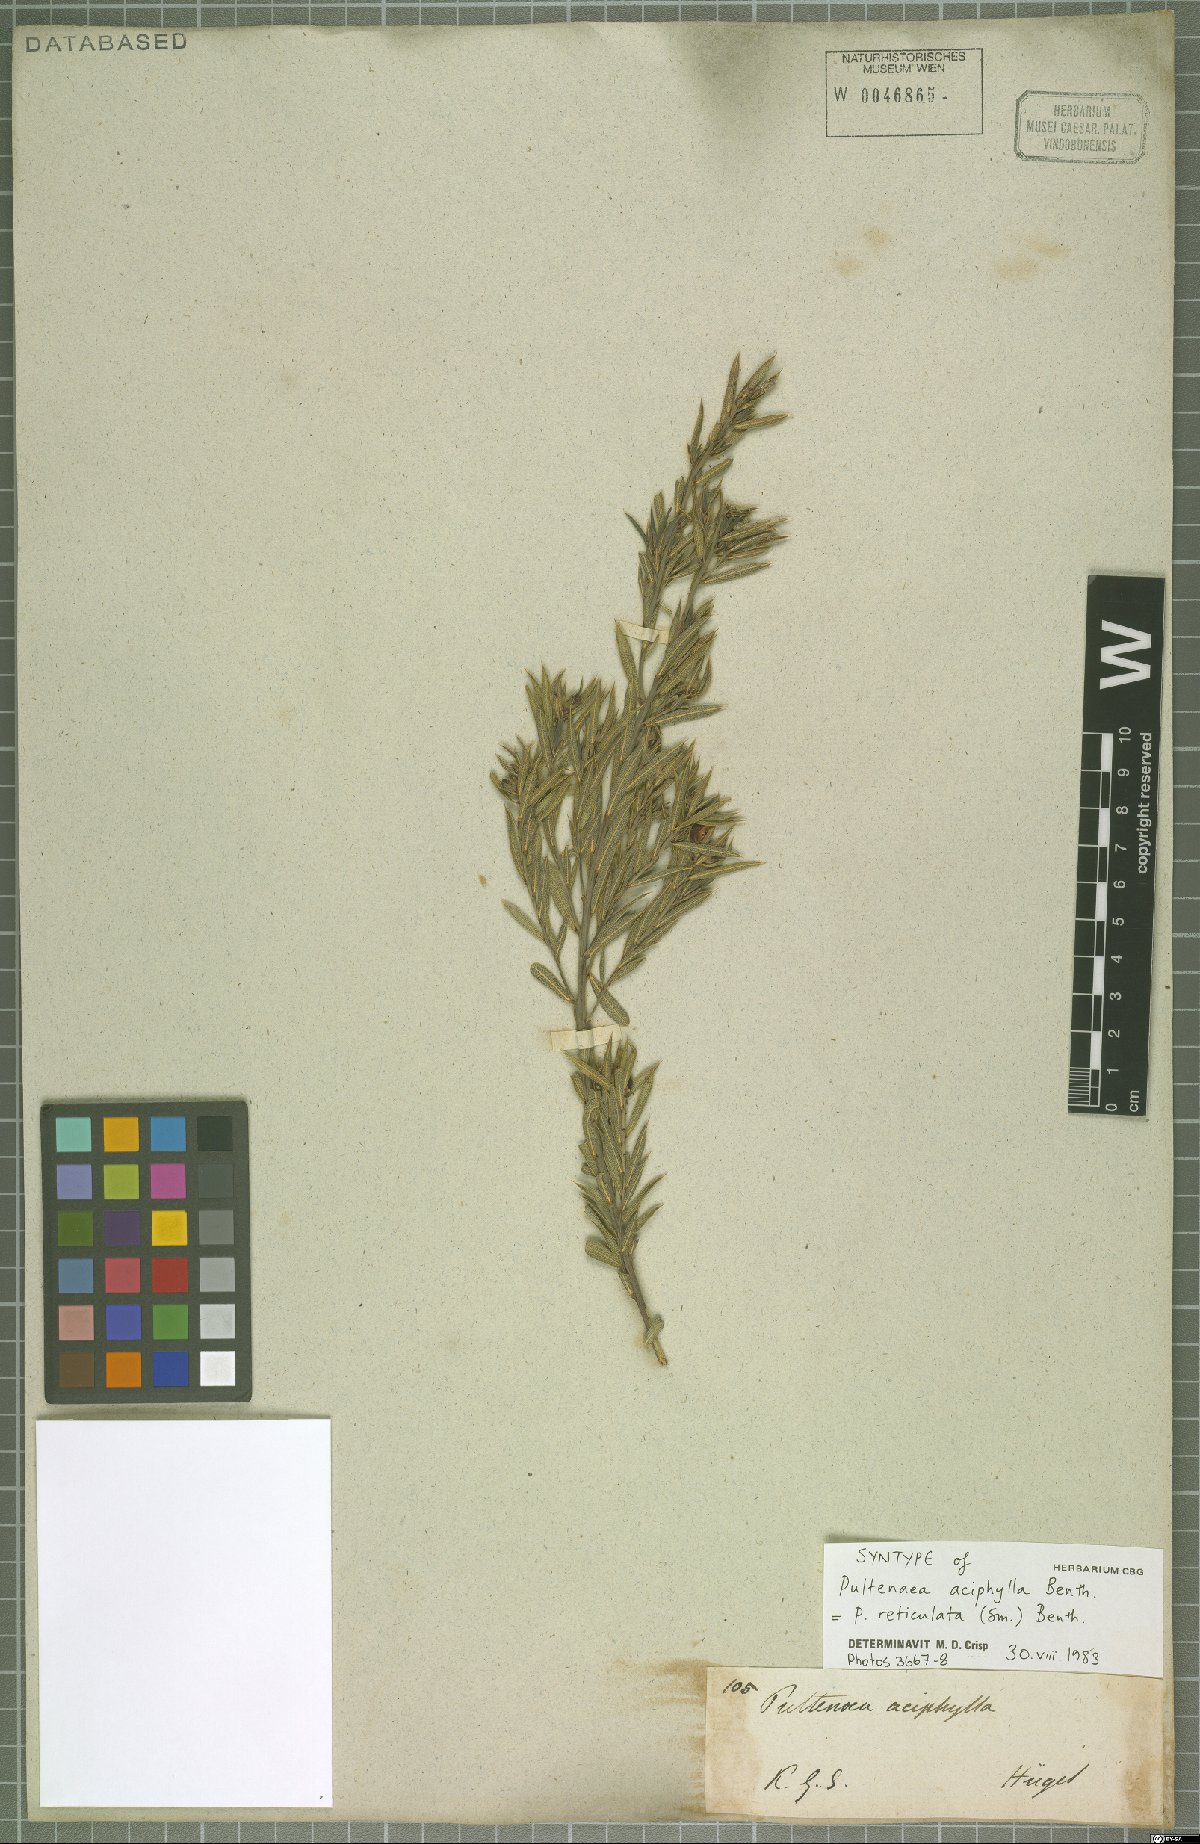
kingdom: Plantae
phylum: Tracheophyta
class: Magnoliopsida
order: Fabales
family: Fabaceae
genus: Pultenaea
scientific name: Pultenaea reticulata
